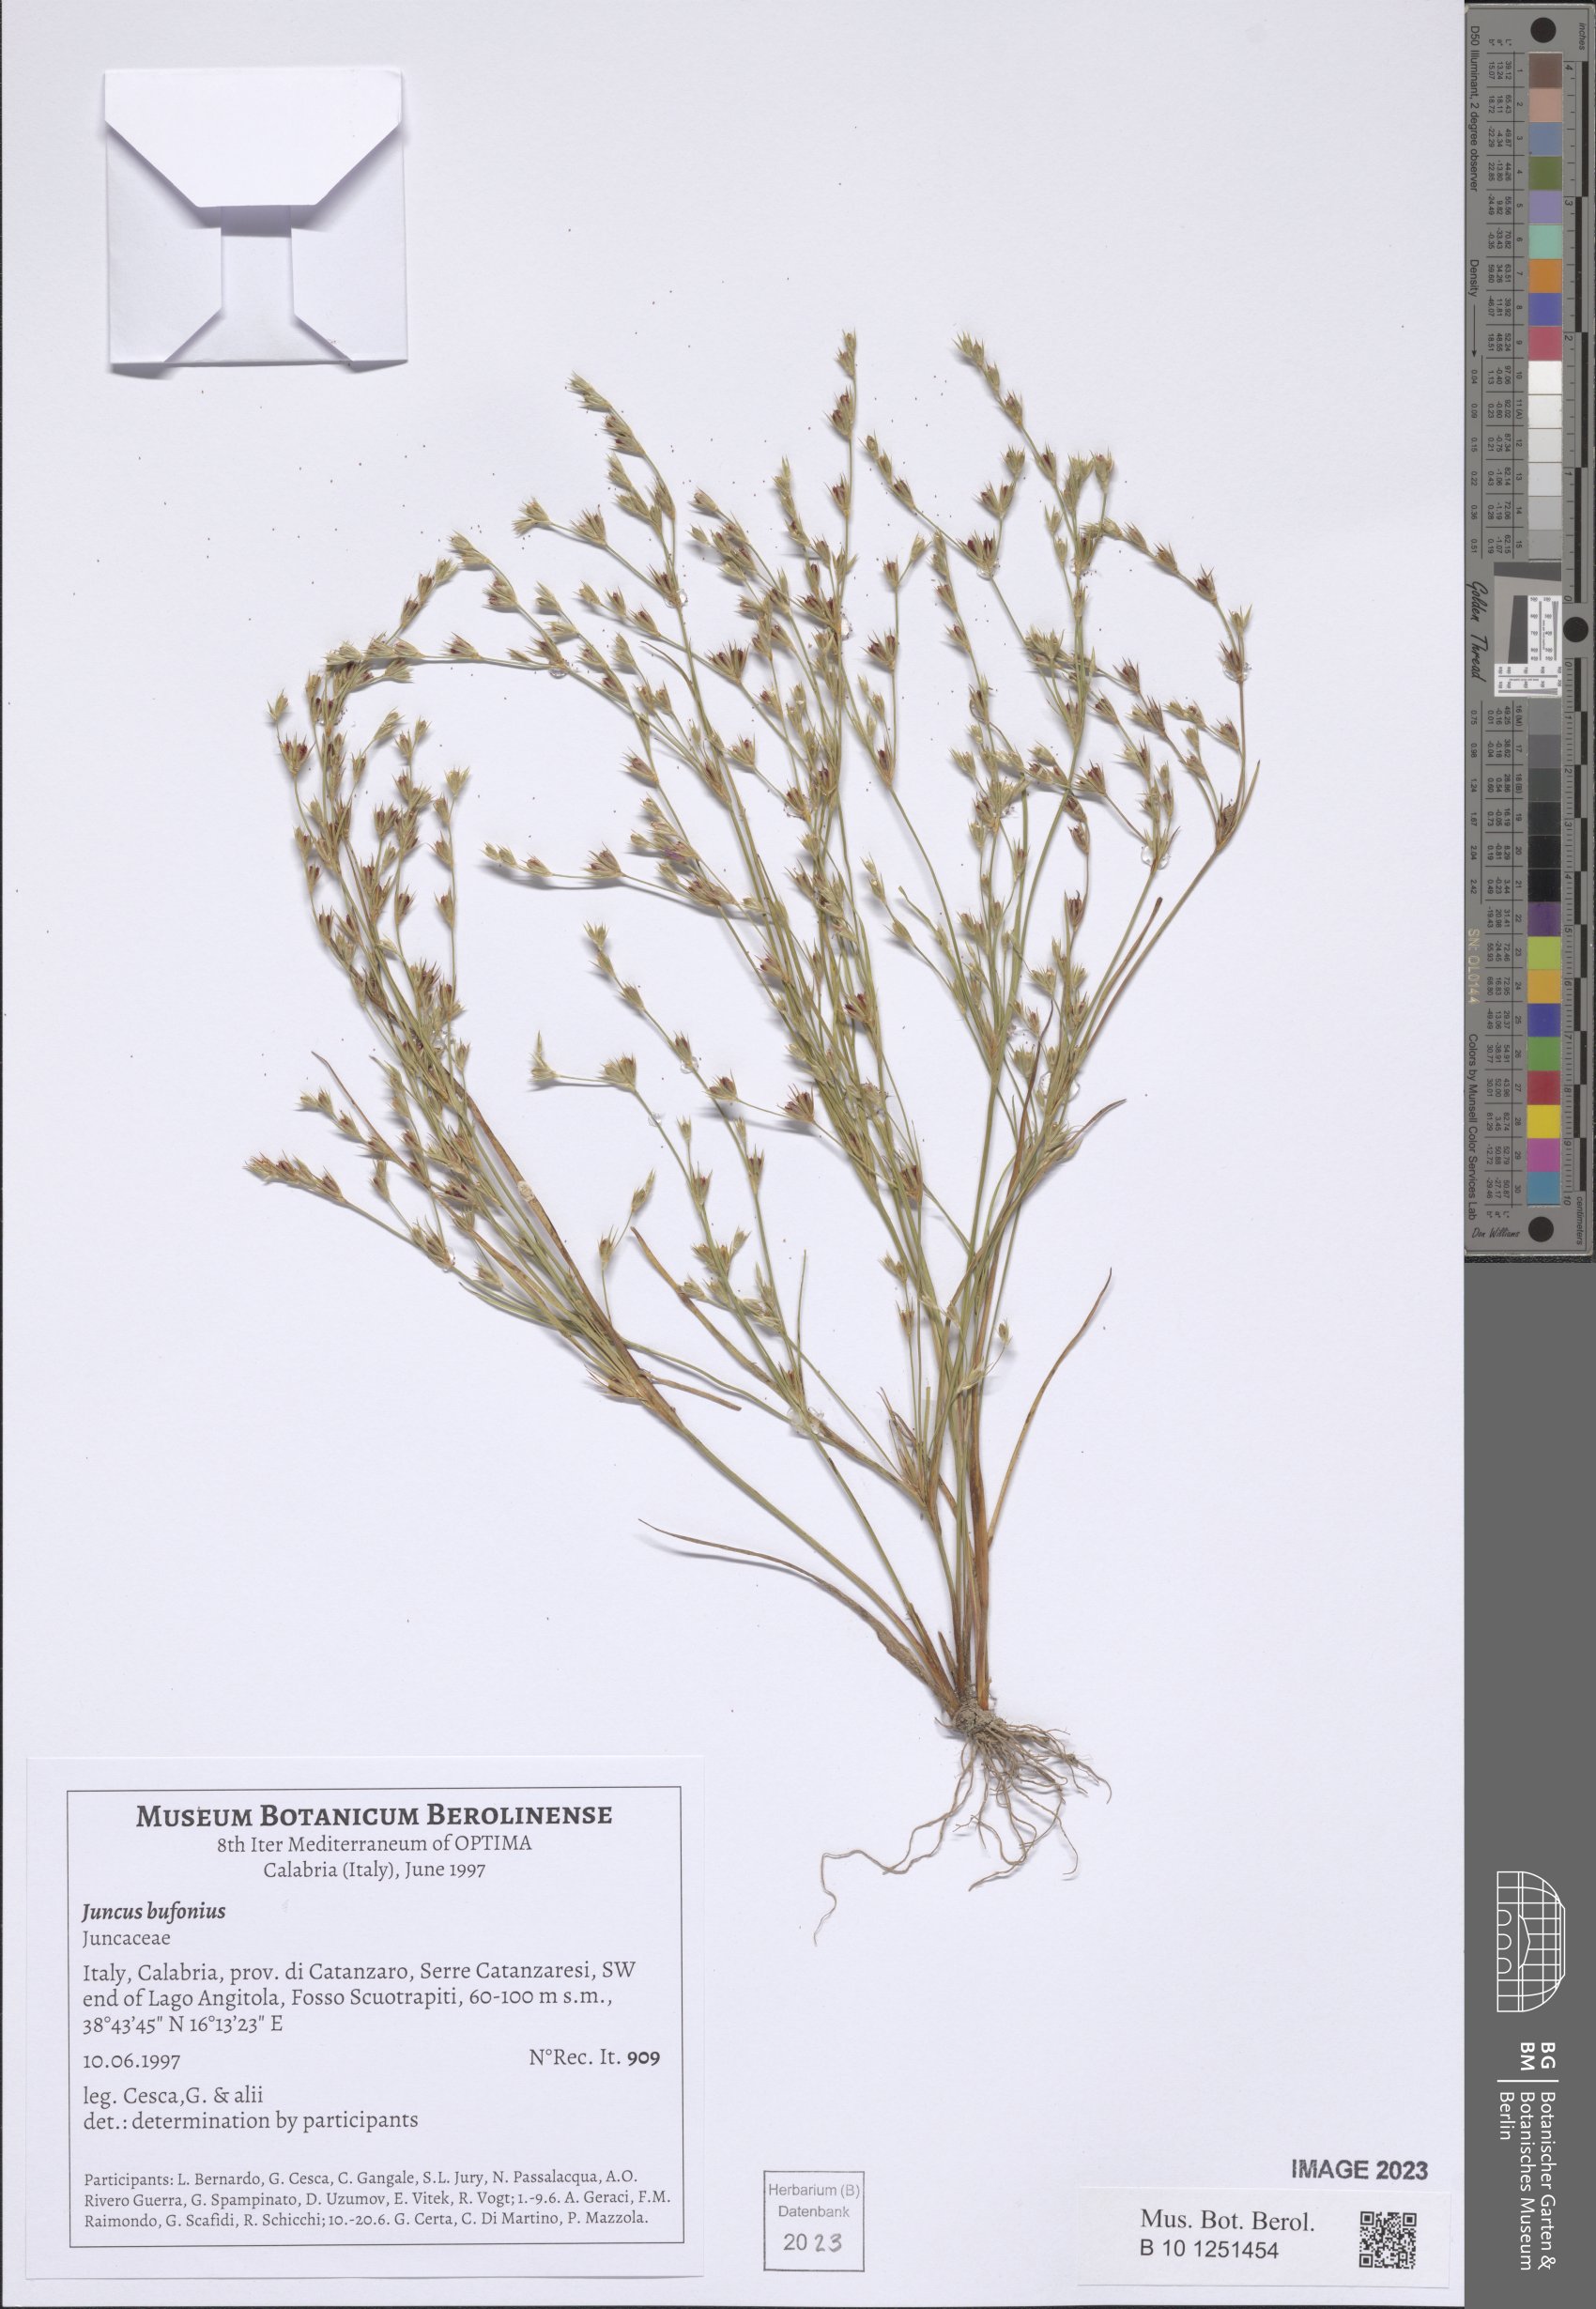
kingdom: Plantae
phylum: Tracheophyta
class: Liliopsida
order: Poales
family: Juncaceae
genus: Juncus
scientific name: Juncus bufonius
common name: Toad rush
